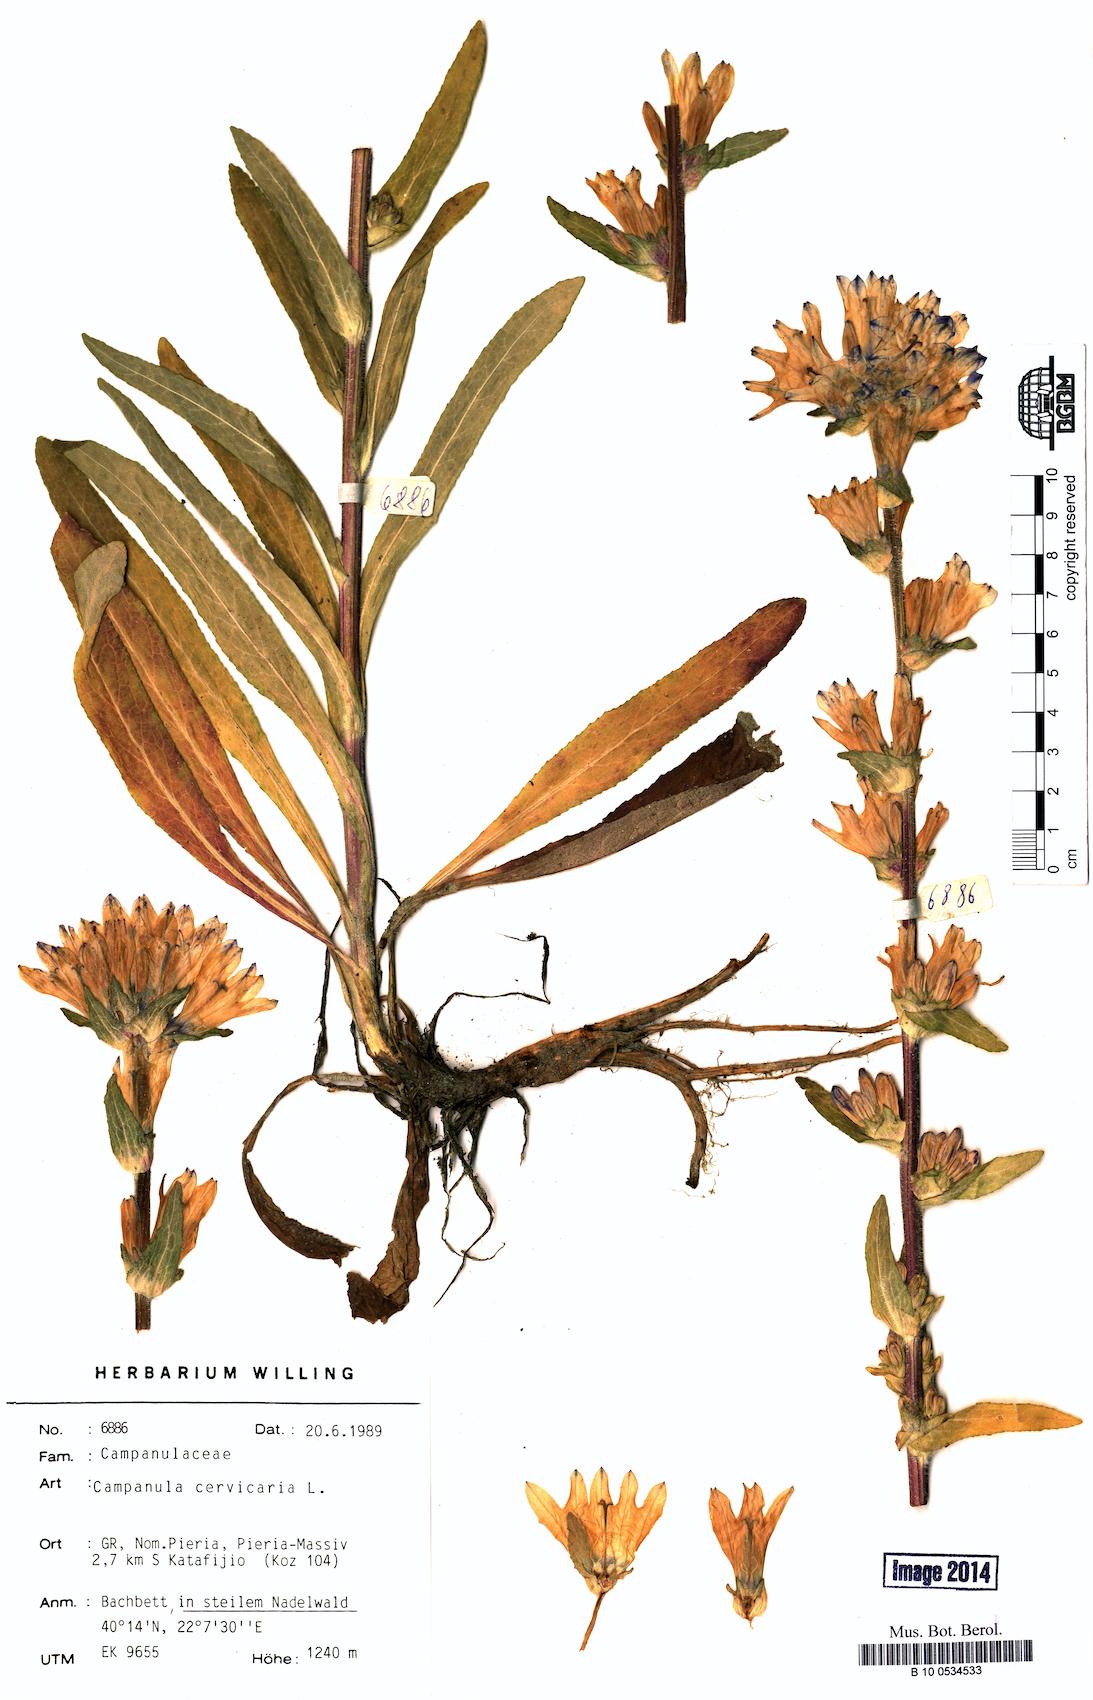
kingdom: Plantae
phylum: Tracheophyta
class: Magnoliopsida
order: Asterales
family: Campanulaceae
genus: Campanula
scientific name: Campanula cervicaria
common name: Bristly bellflower
